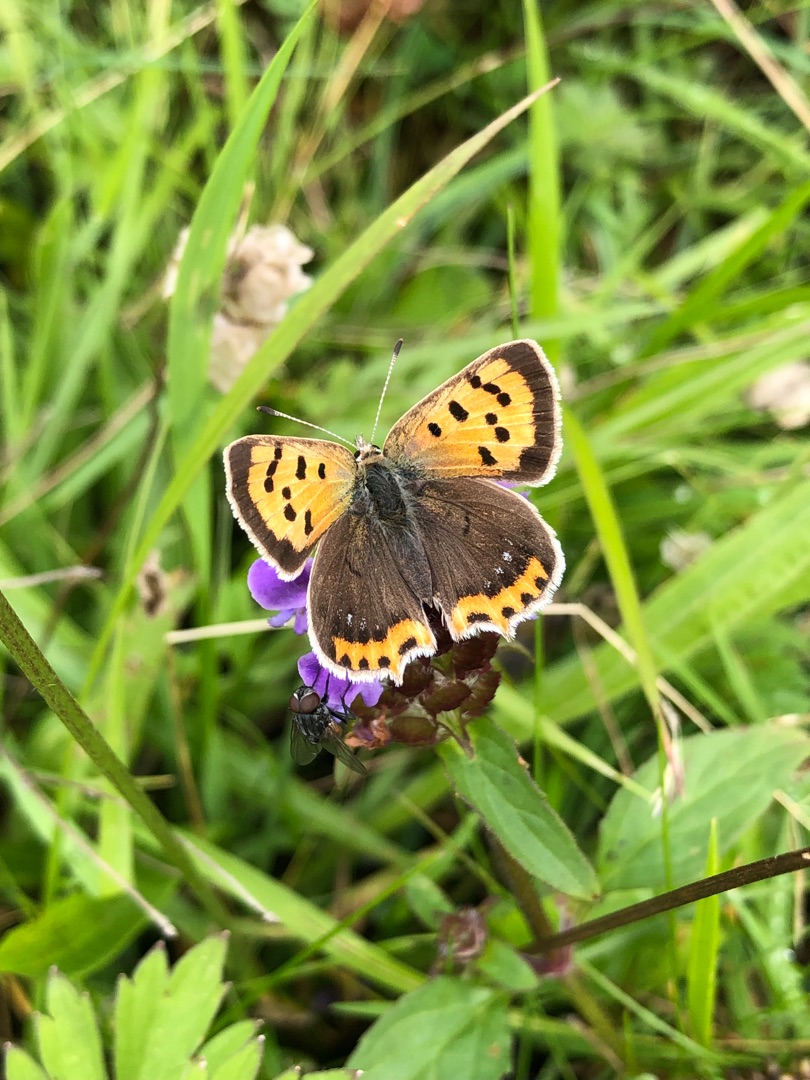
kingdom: Animalia
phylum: Arthropoda
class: Insecta
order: Lepidoptera
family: Lycaenidae
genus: Lycaena
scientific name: Lycaena phlaeas
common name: Lille ildfugl
